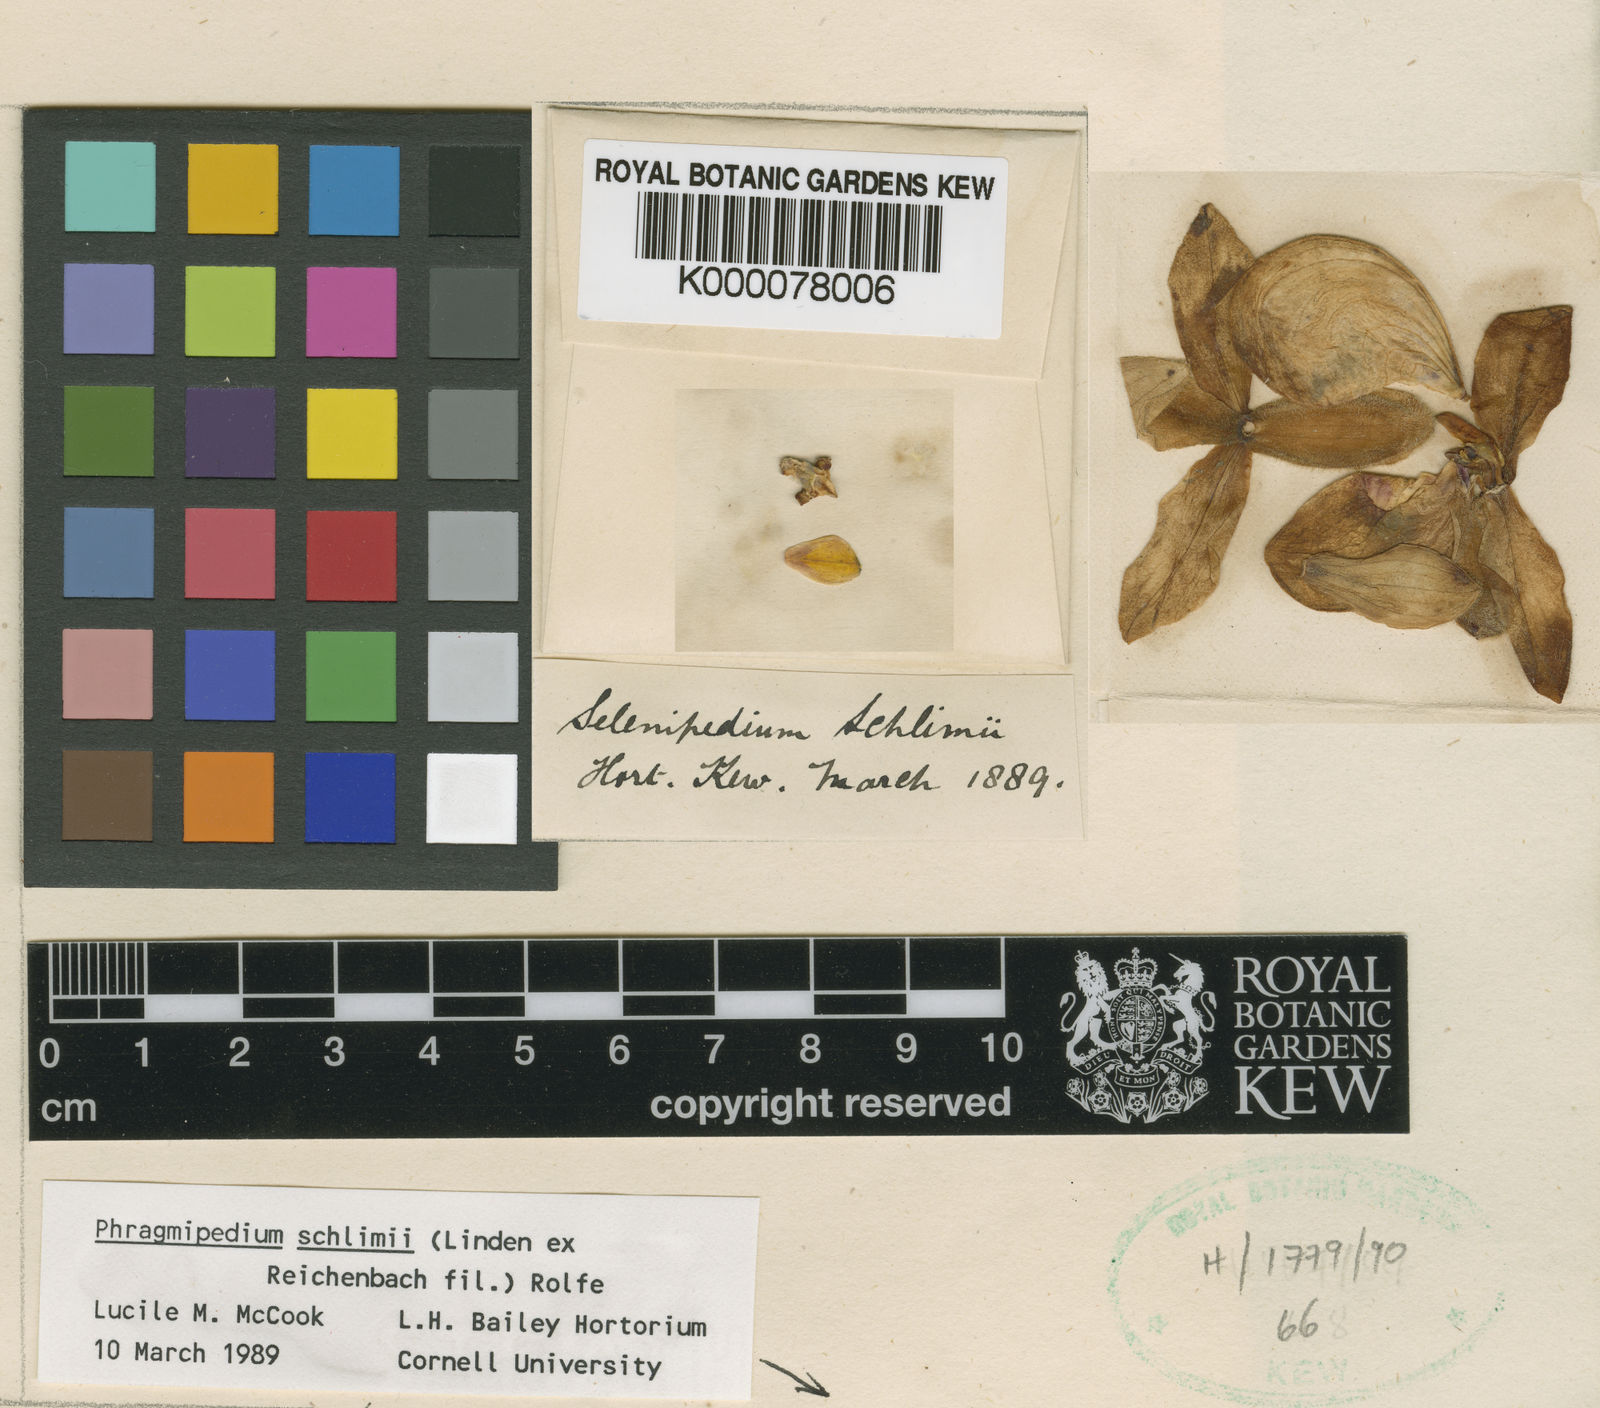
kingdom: Plantae
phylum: Tracheophyta
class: Liliopsida
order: Asparagales
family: Orchidaceae
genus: Phragmipaphium
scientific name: Phragmipaphium
